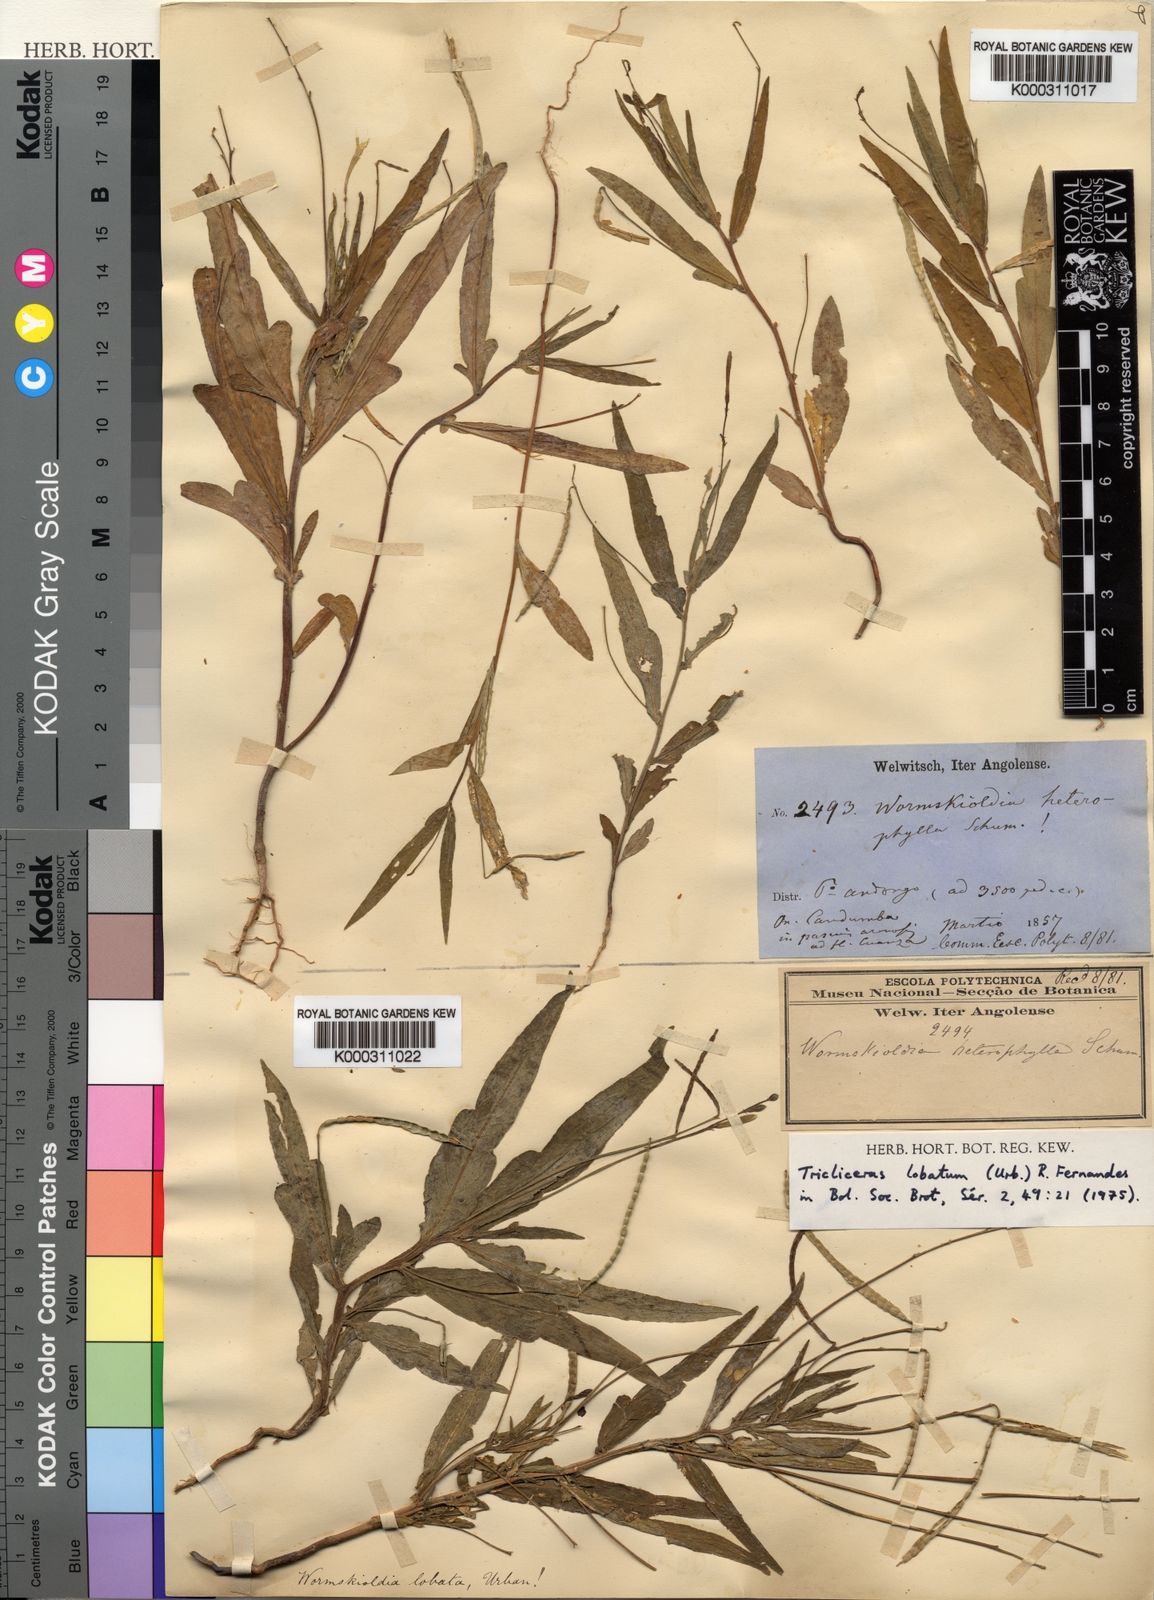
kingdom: Plantae
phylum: Tracheophyta
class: Magnoliopsida
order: Malpighiales
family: Turneraceae
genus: Tricliceras
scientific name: Tricliceras
